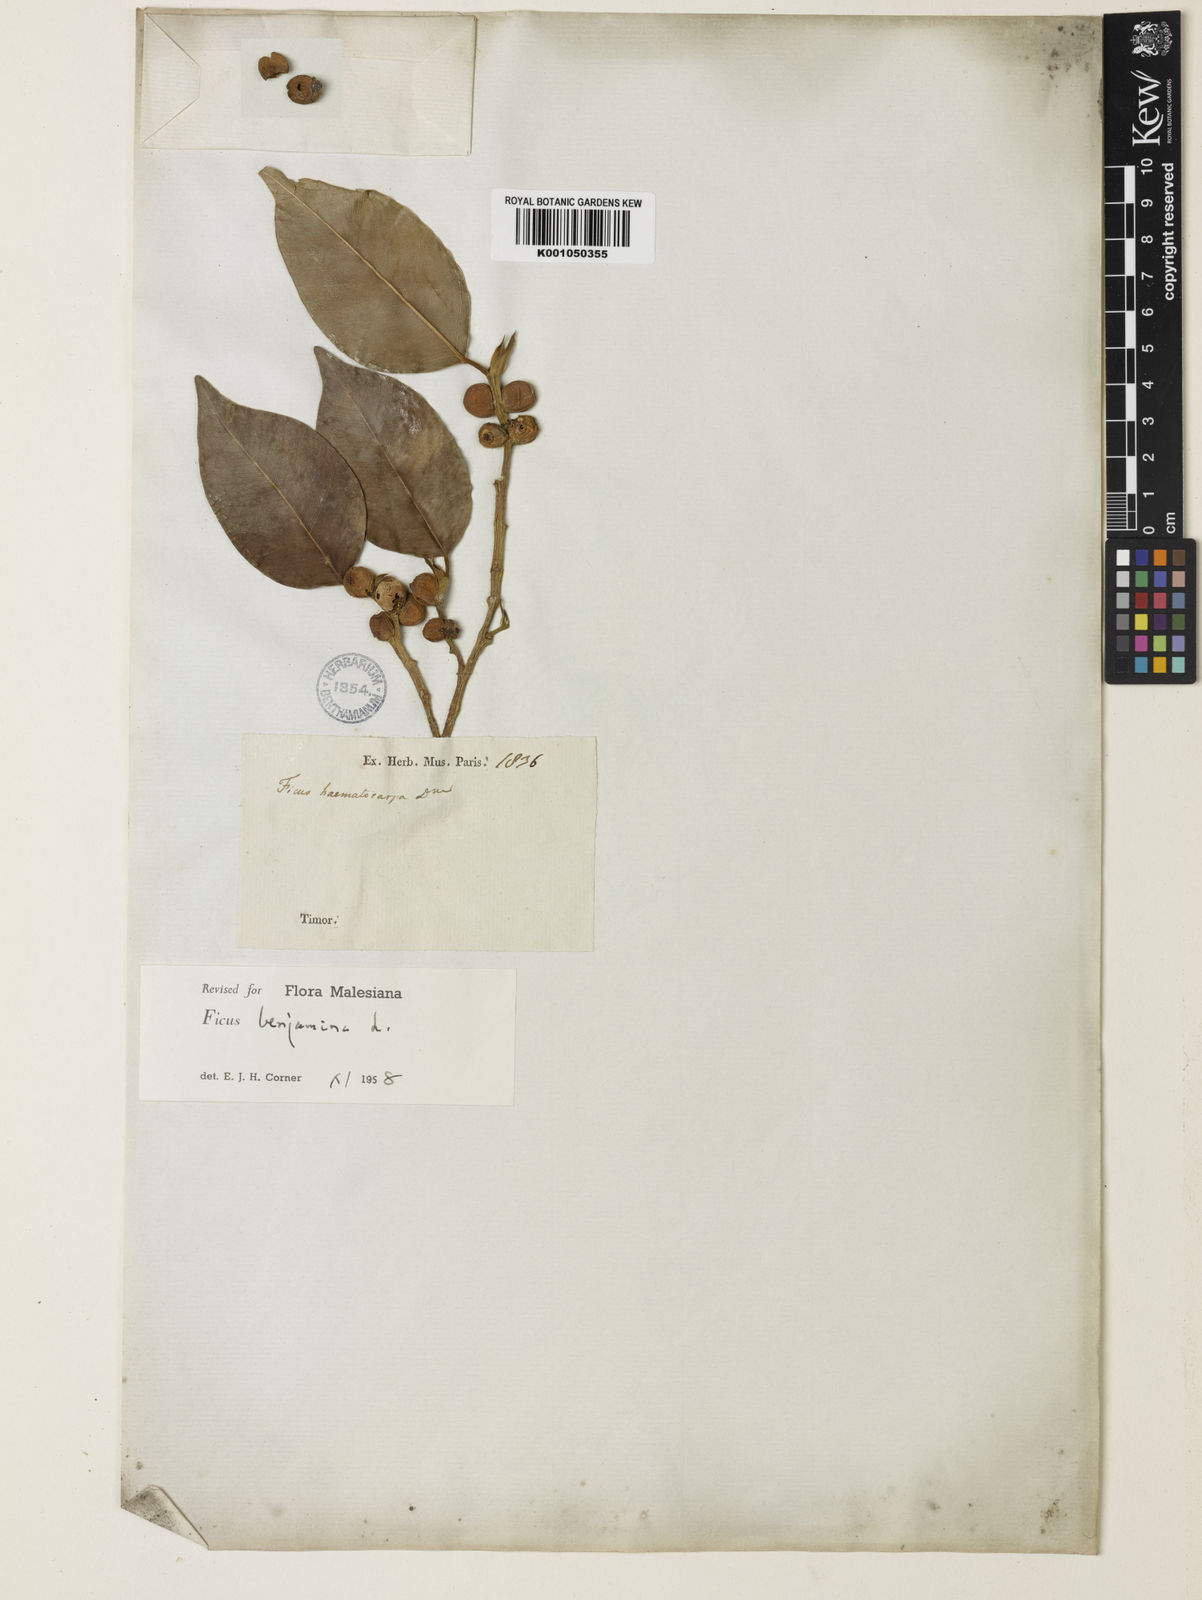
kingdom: Plantae
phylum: Tracheophyta
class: Magnoliopsida
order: Rosales
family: Moraceae
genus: Ficus
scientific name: Ficus benjamina
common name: Weeping fig
